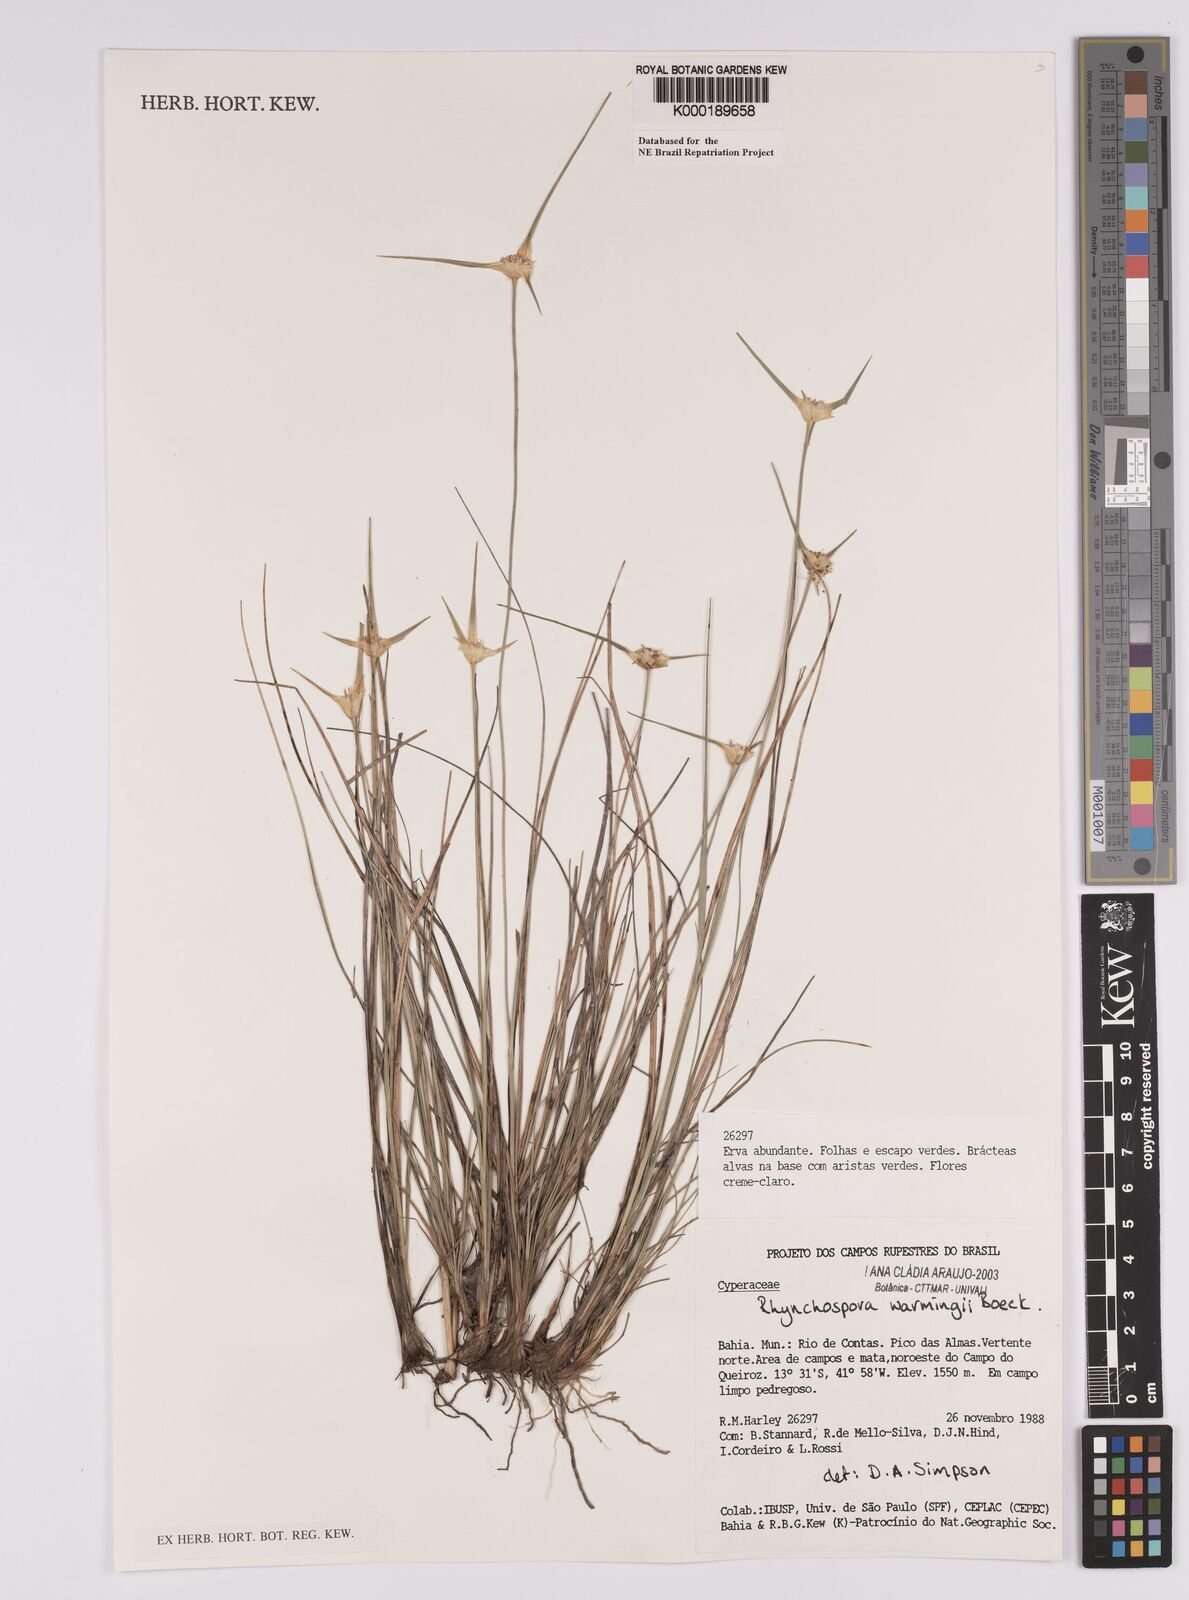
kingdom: Plantae
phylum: Tracheophyta
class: Liliopsida
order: Poales
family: Cyperaceae
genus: Rhynchospora
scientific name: Rhynchospora warmingii
